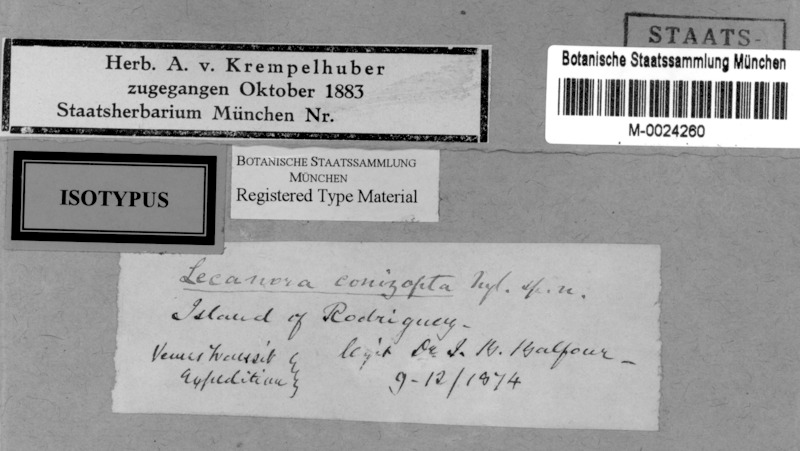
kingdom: Fungi
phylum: Ascomycota
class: Lecanoromycetes
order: Lecanorales
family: Lecanoraceae
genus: Lecanora
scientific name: Lecanora conizopta
